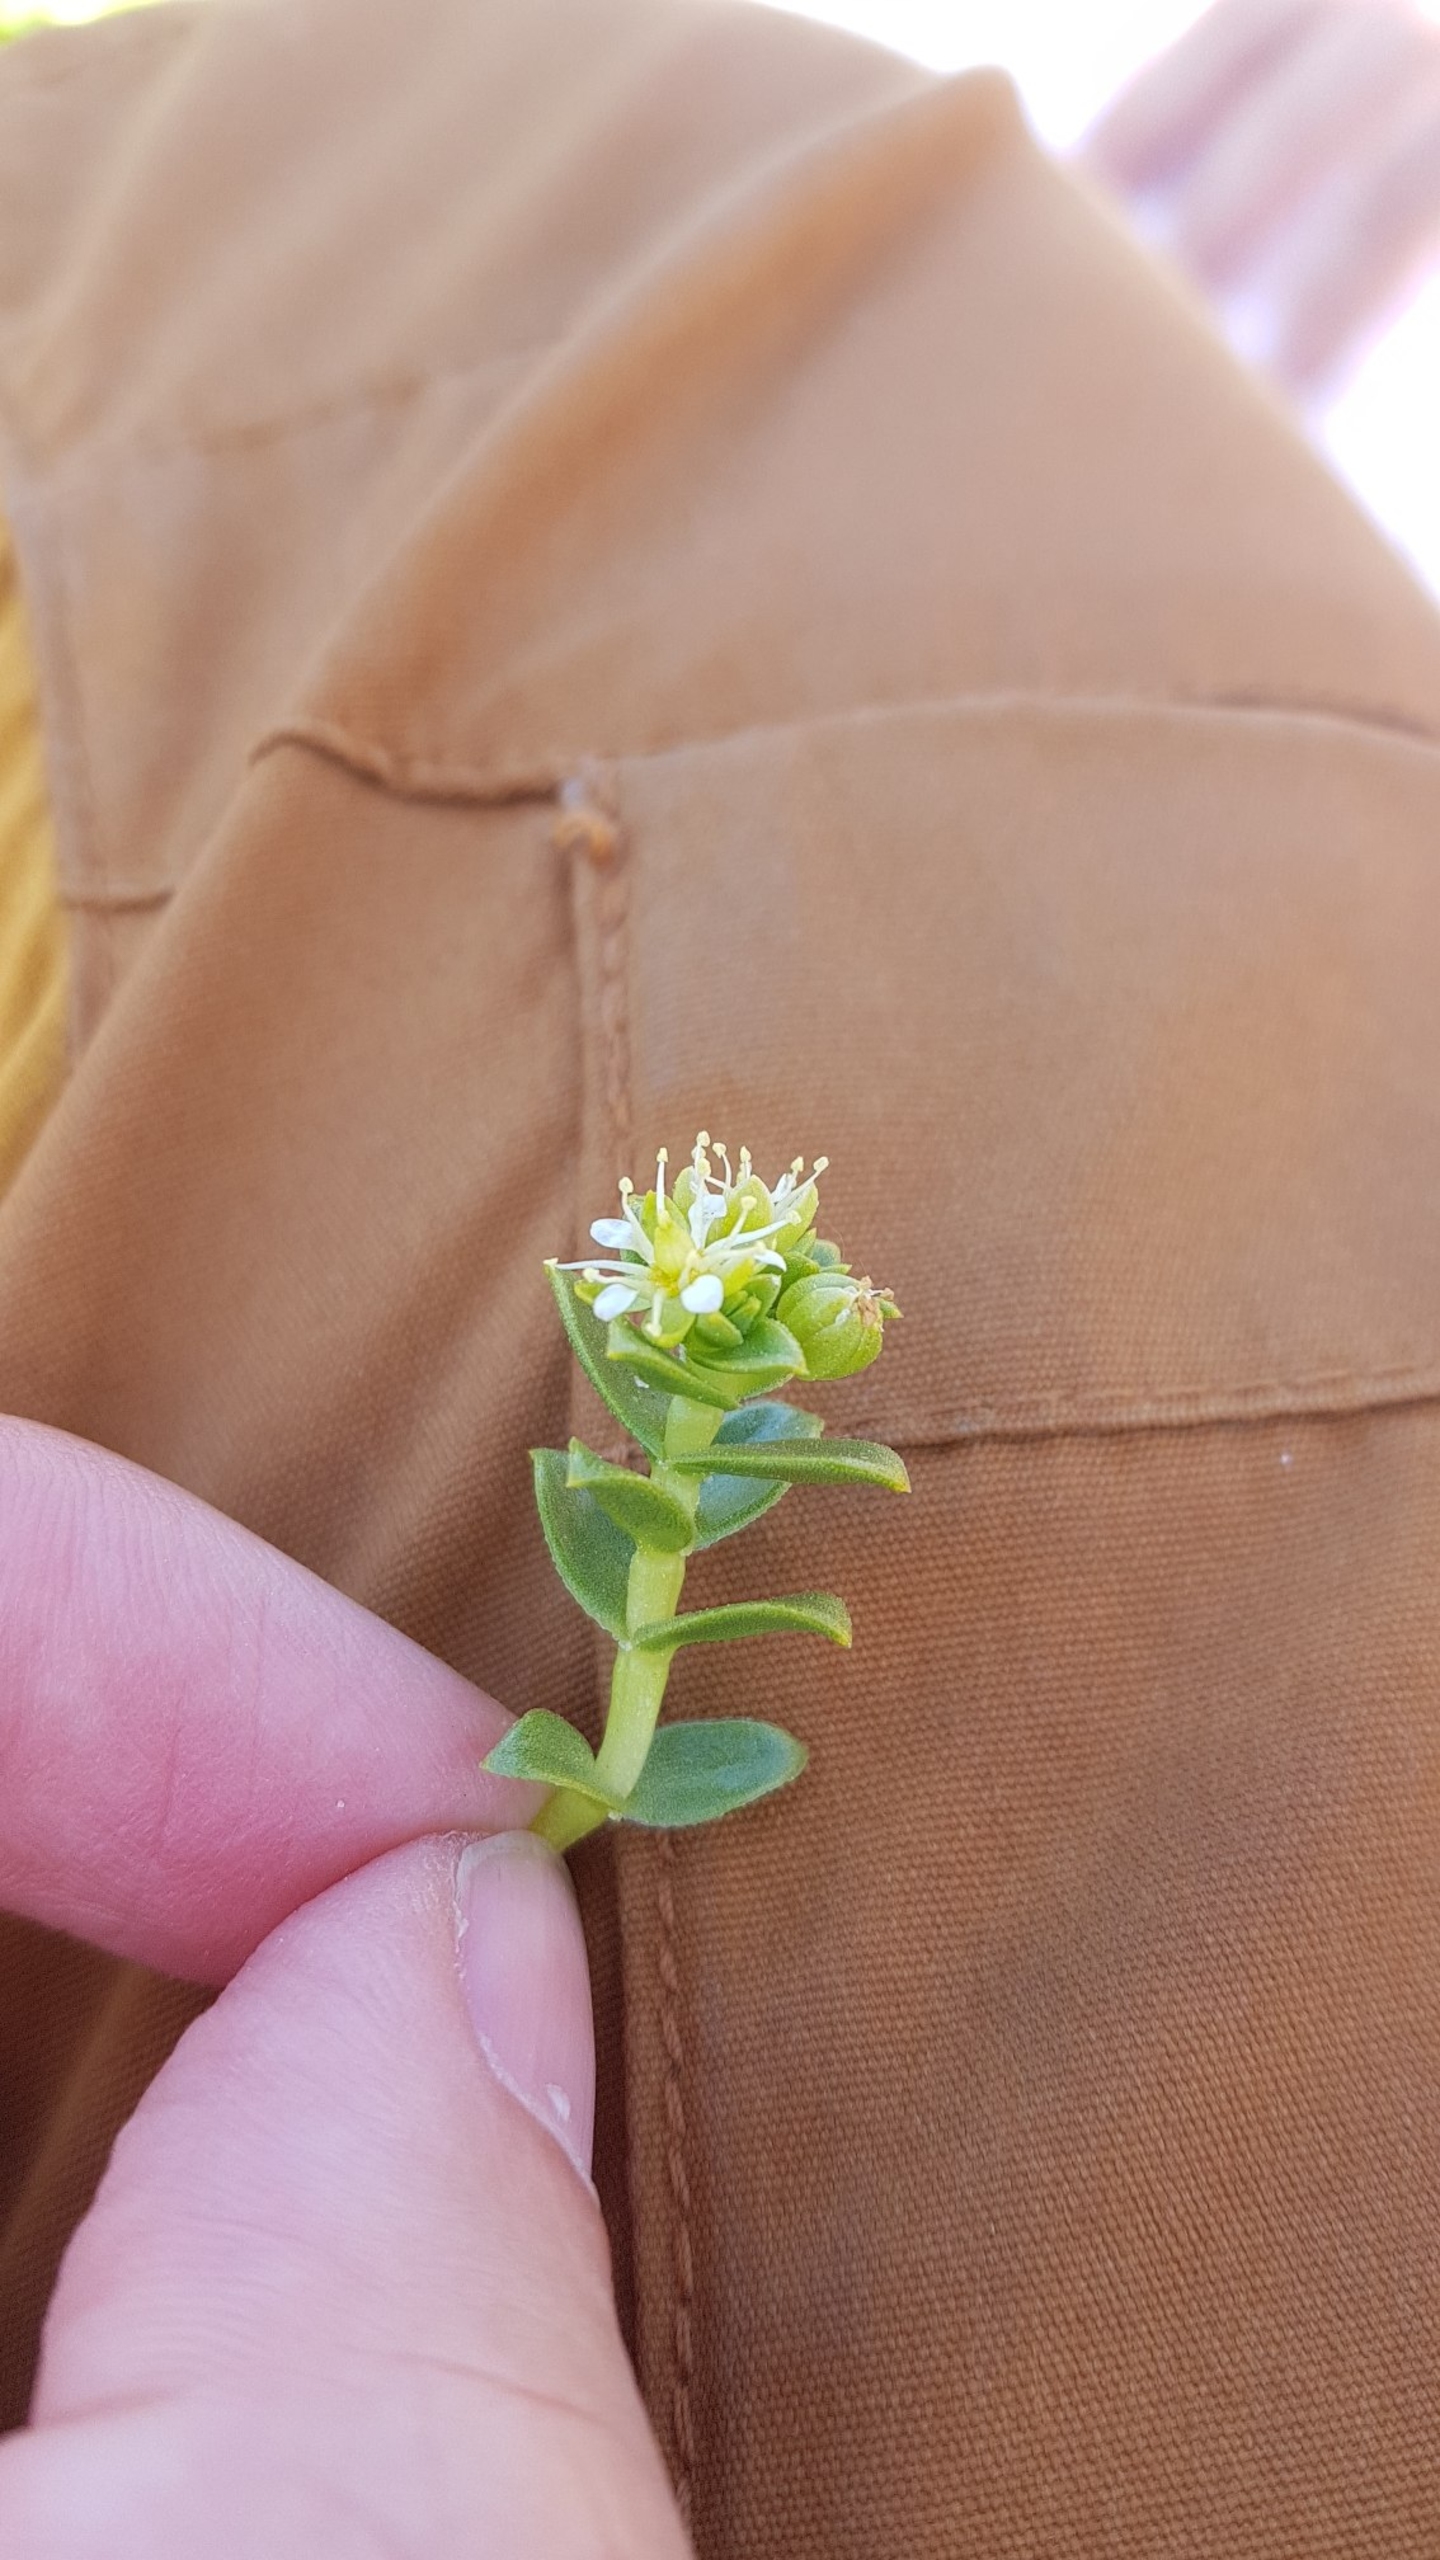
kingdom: Plantae
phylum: Tracheophyta
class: Magnoliopsida
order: Caryophyllales
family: Caryophyllaceae
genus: Honckenya
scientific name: Honckenya peploides
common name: Strandarve
